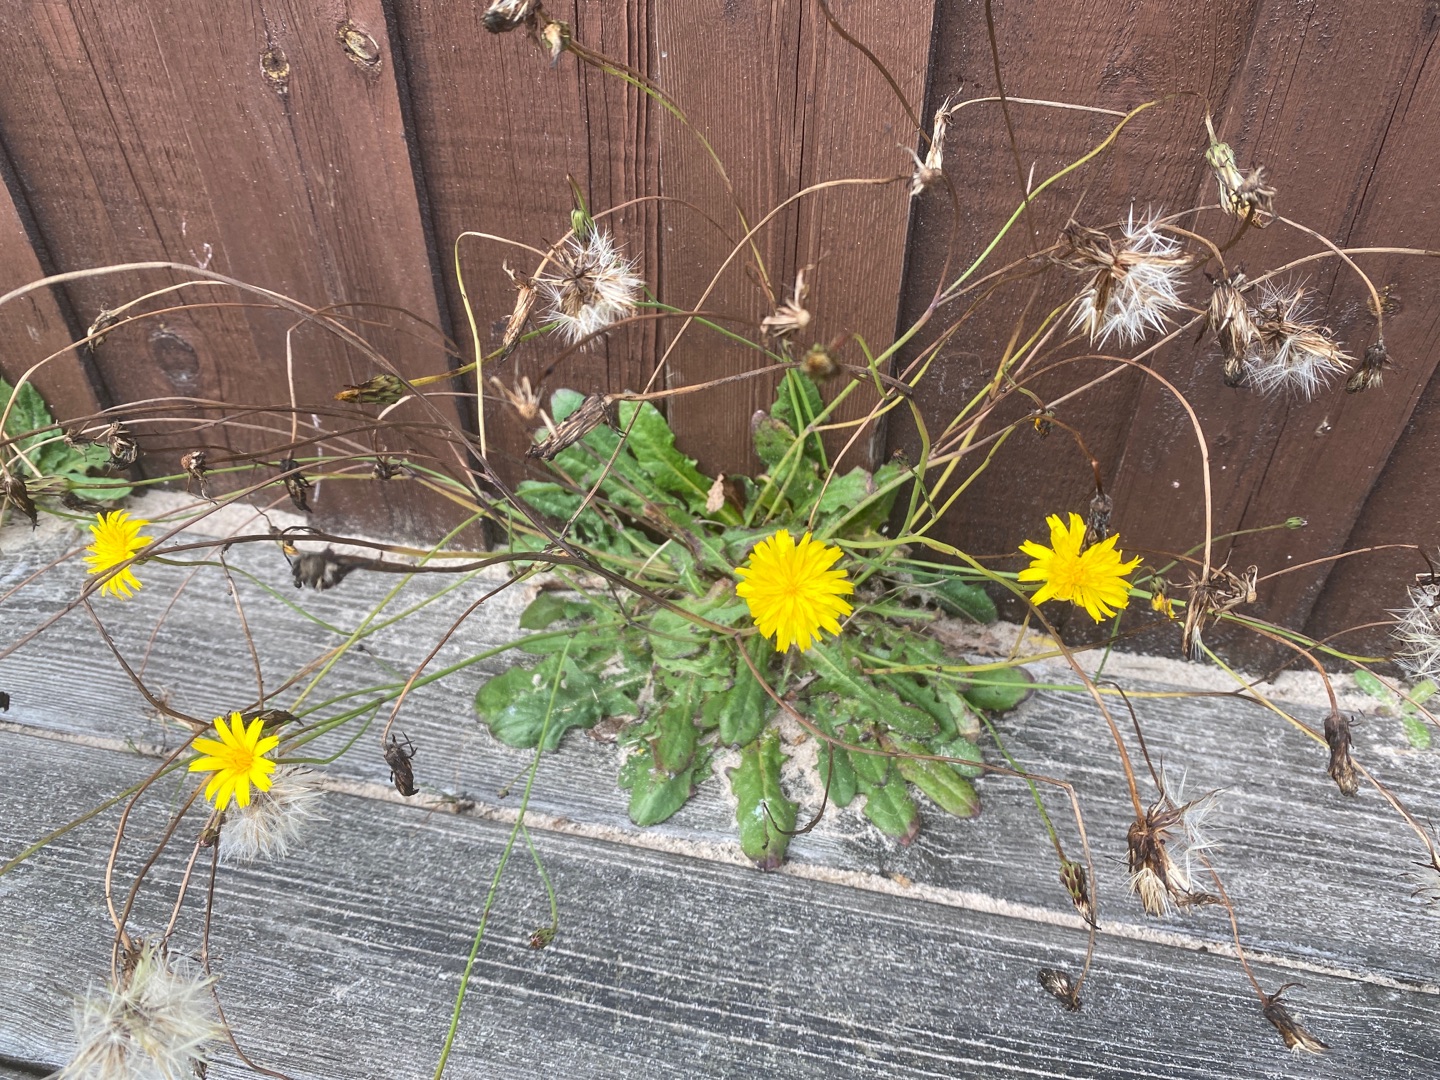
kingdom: Plantae
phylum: Tracheophyta
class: Magnoliopsida
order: Asterales
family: Asteraceae
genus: Hypochaeris
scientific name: Hypochaeris radicata
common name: Almindelig kongepen
